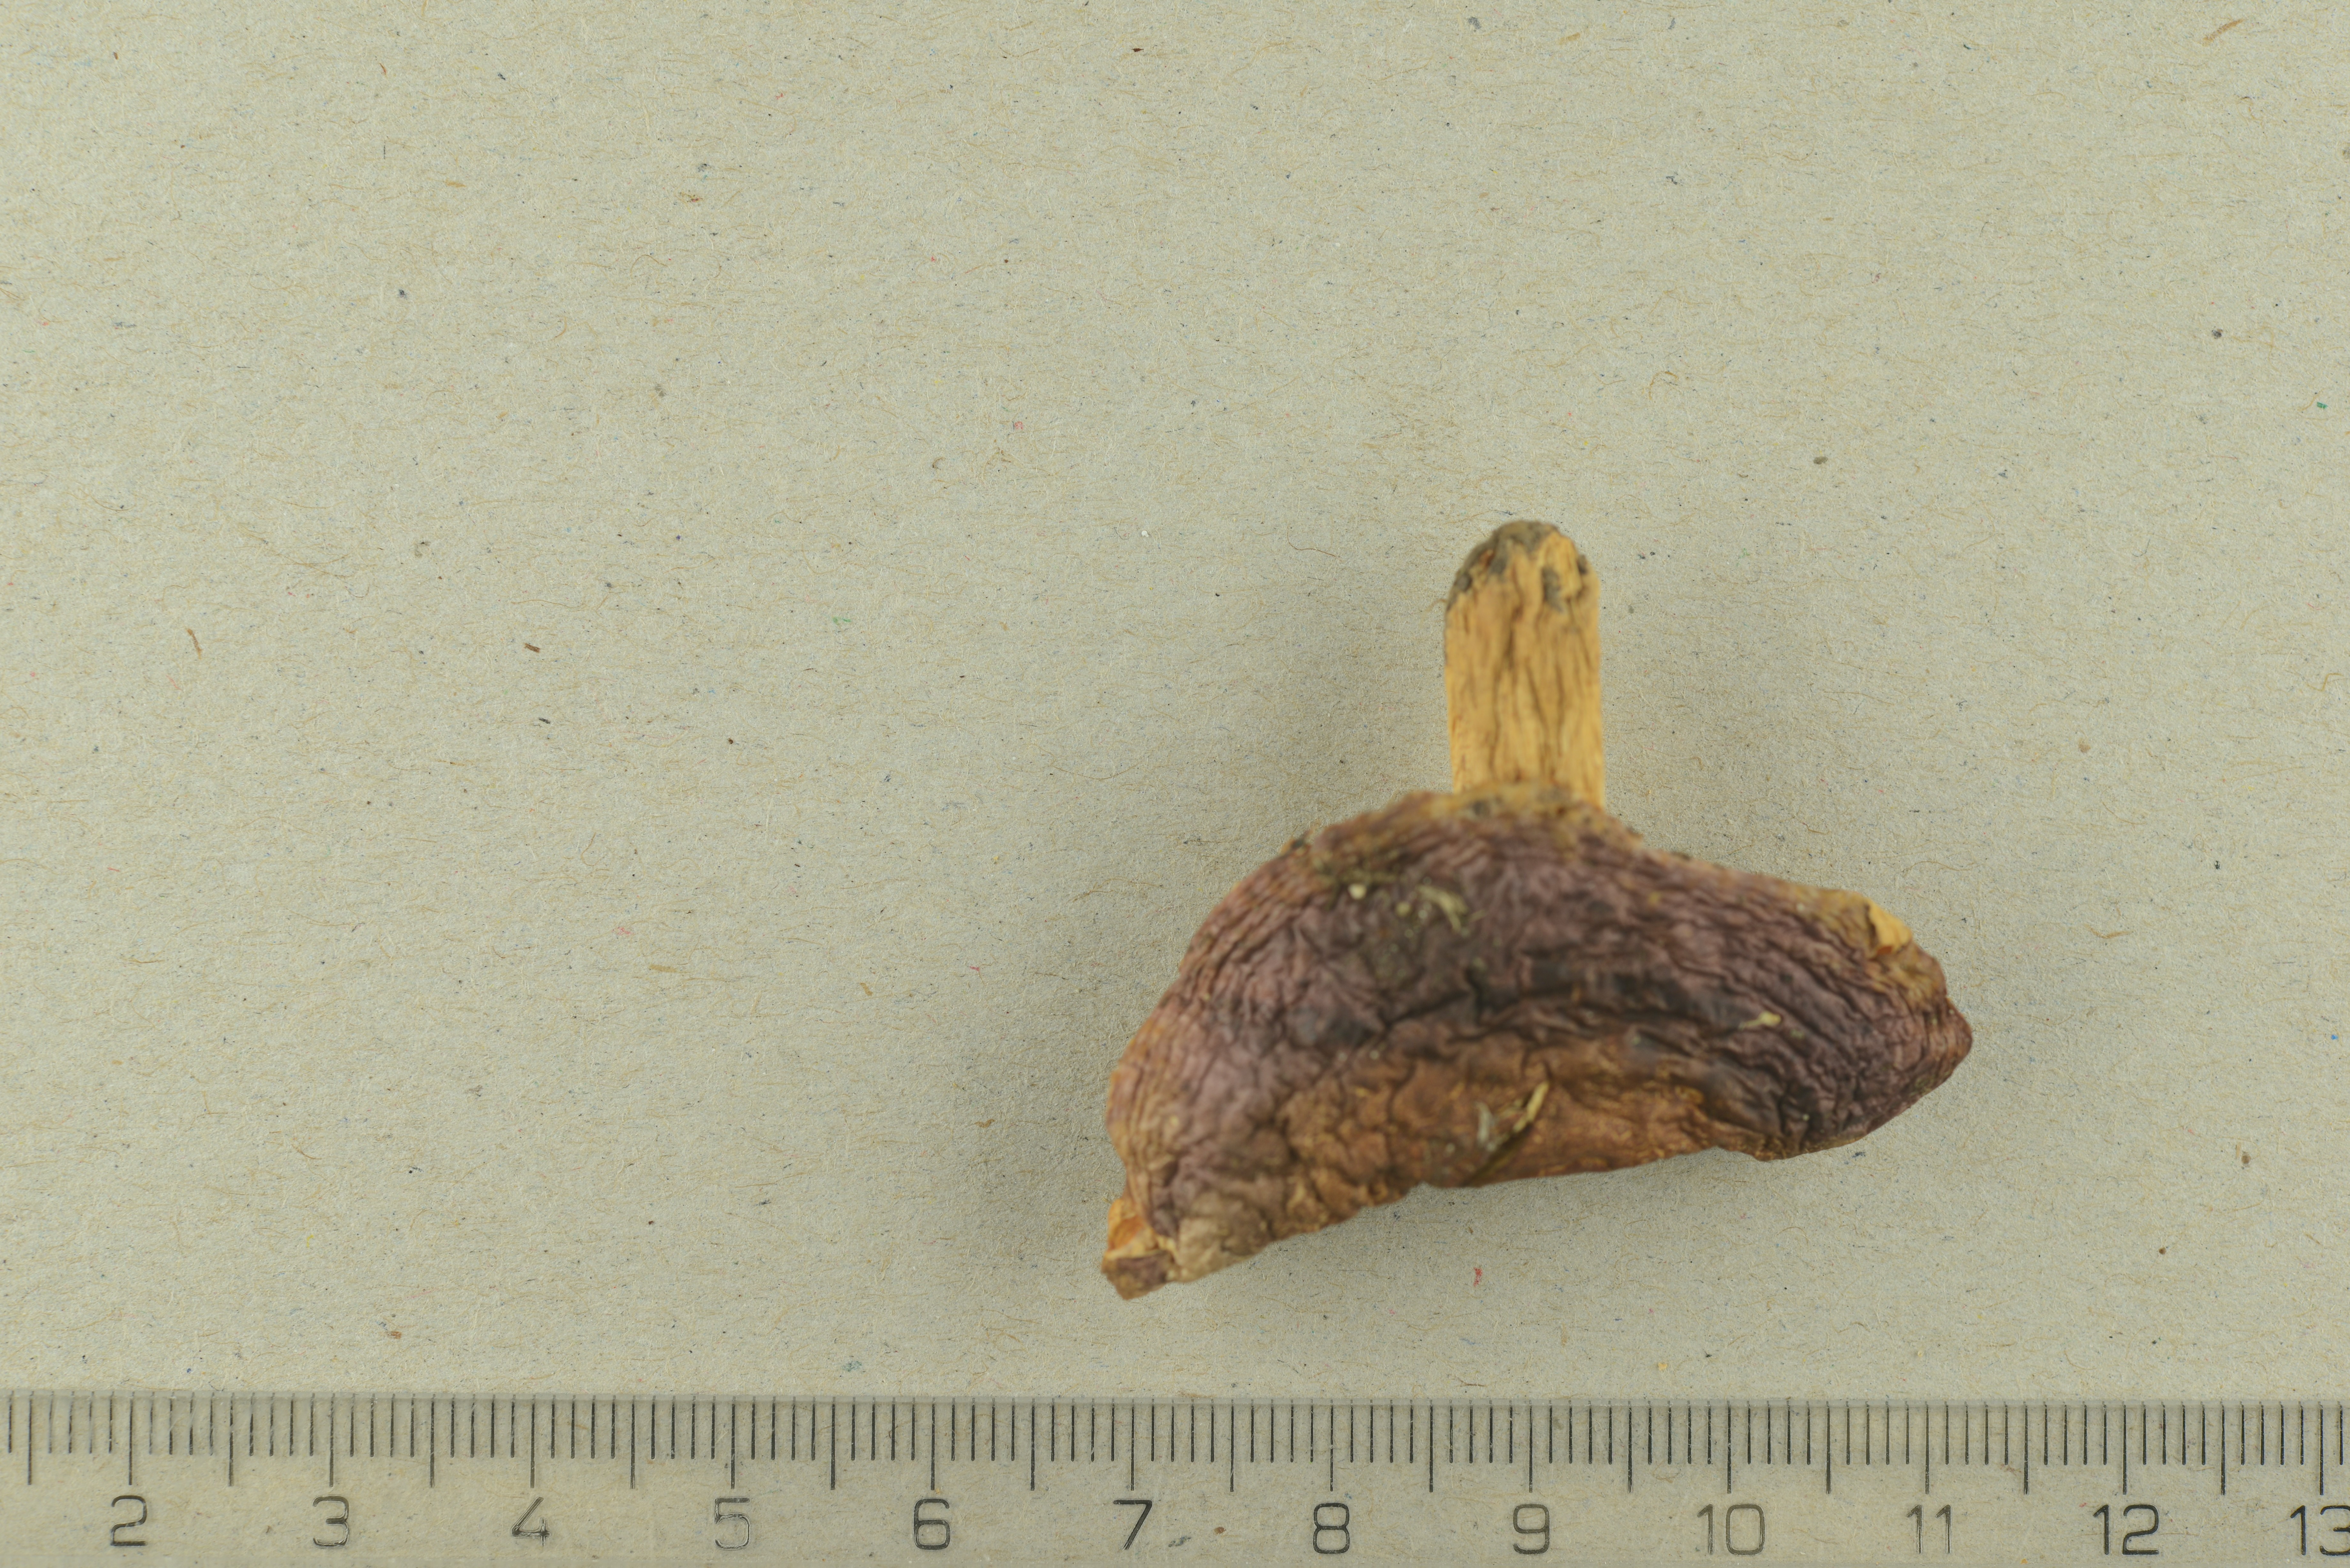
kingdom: Fungi
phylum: Basidiomycota
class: Agaricomycetes
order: Russulales
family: Russulaceae
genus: Russula
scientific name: Russula puellaris
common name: Yellowing brittlegill
